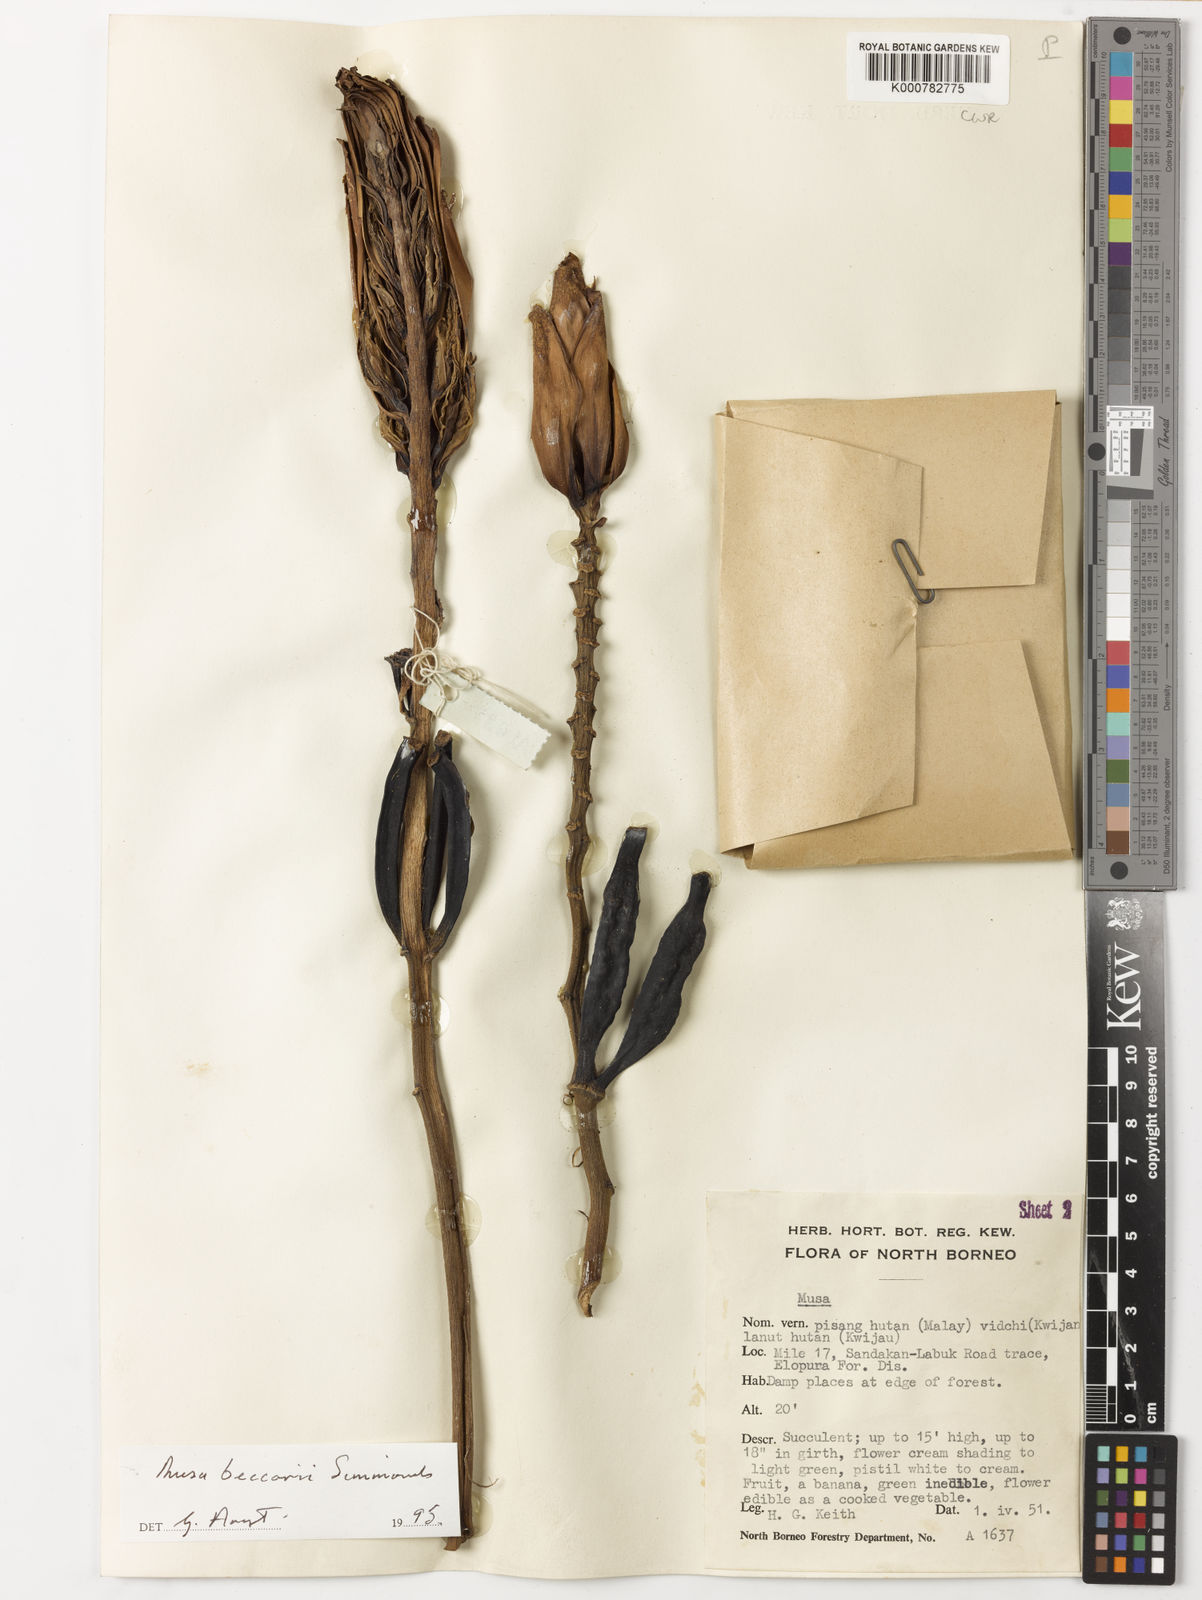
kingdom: Plantae
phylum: Tracheophyta
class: Liliopsida
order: Zingiberales
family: Musaceae
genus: Musa
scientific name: Musa beccarii
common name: Pisang tajak
